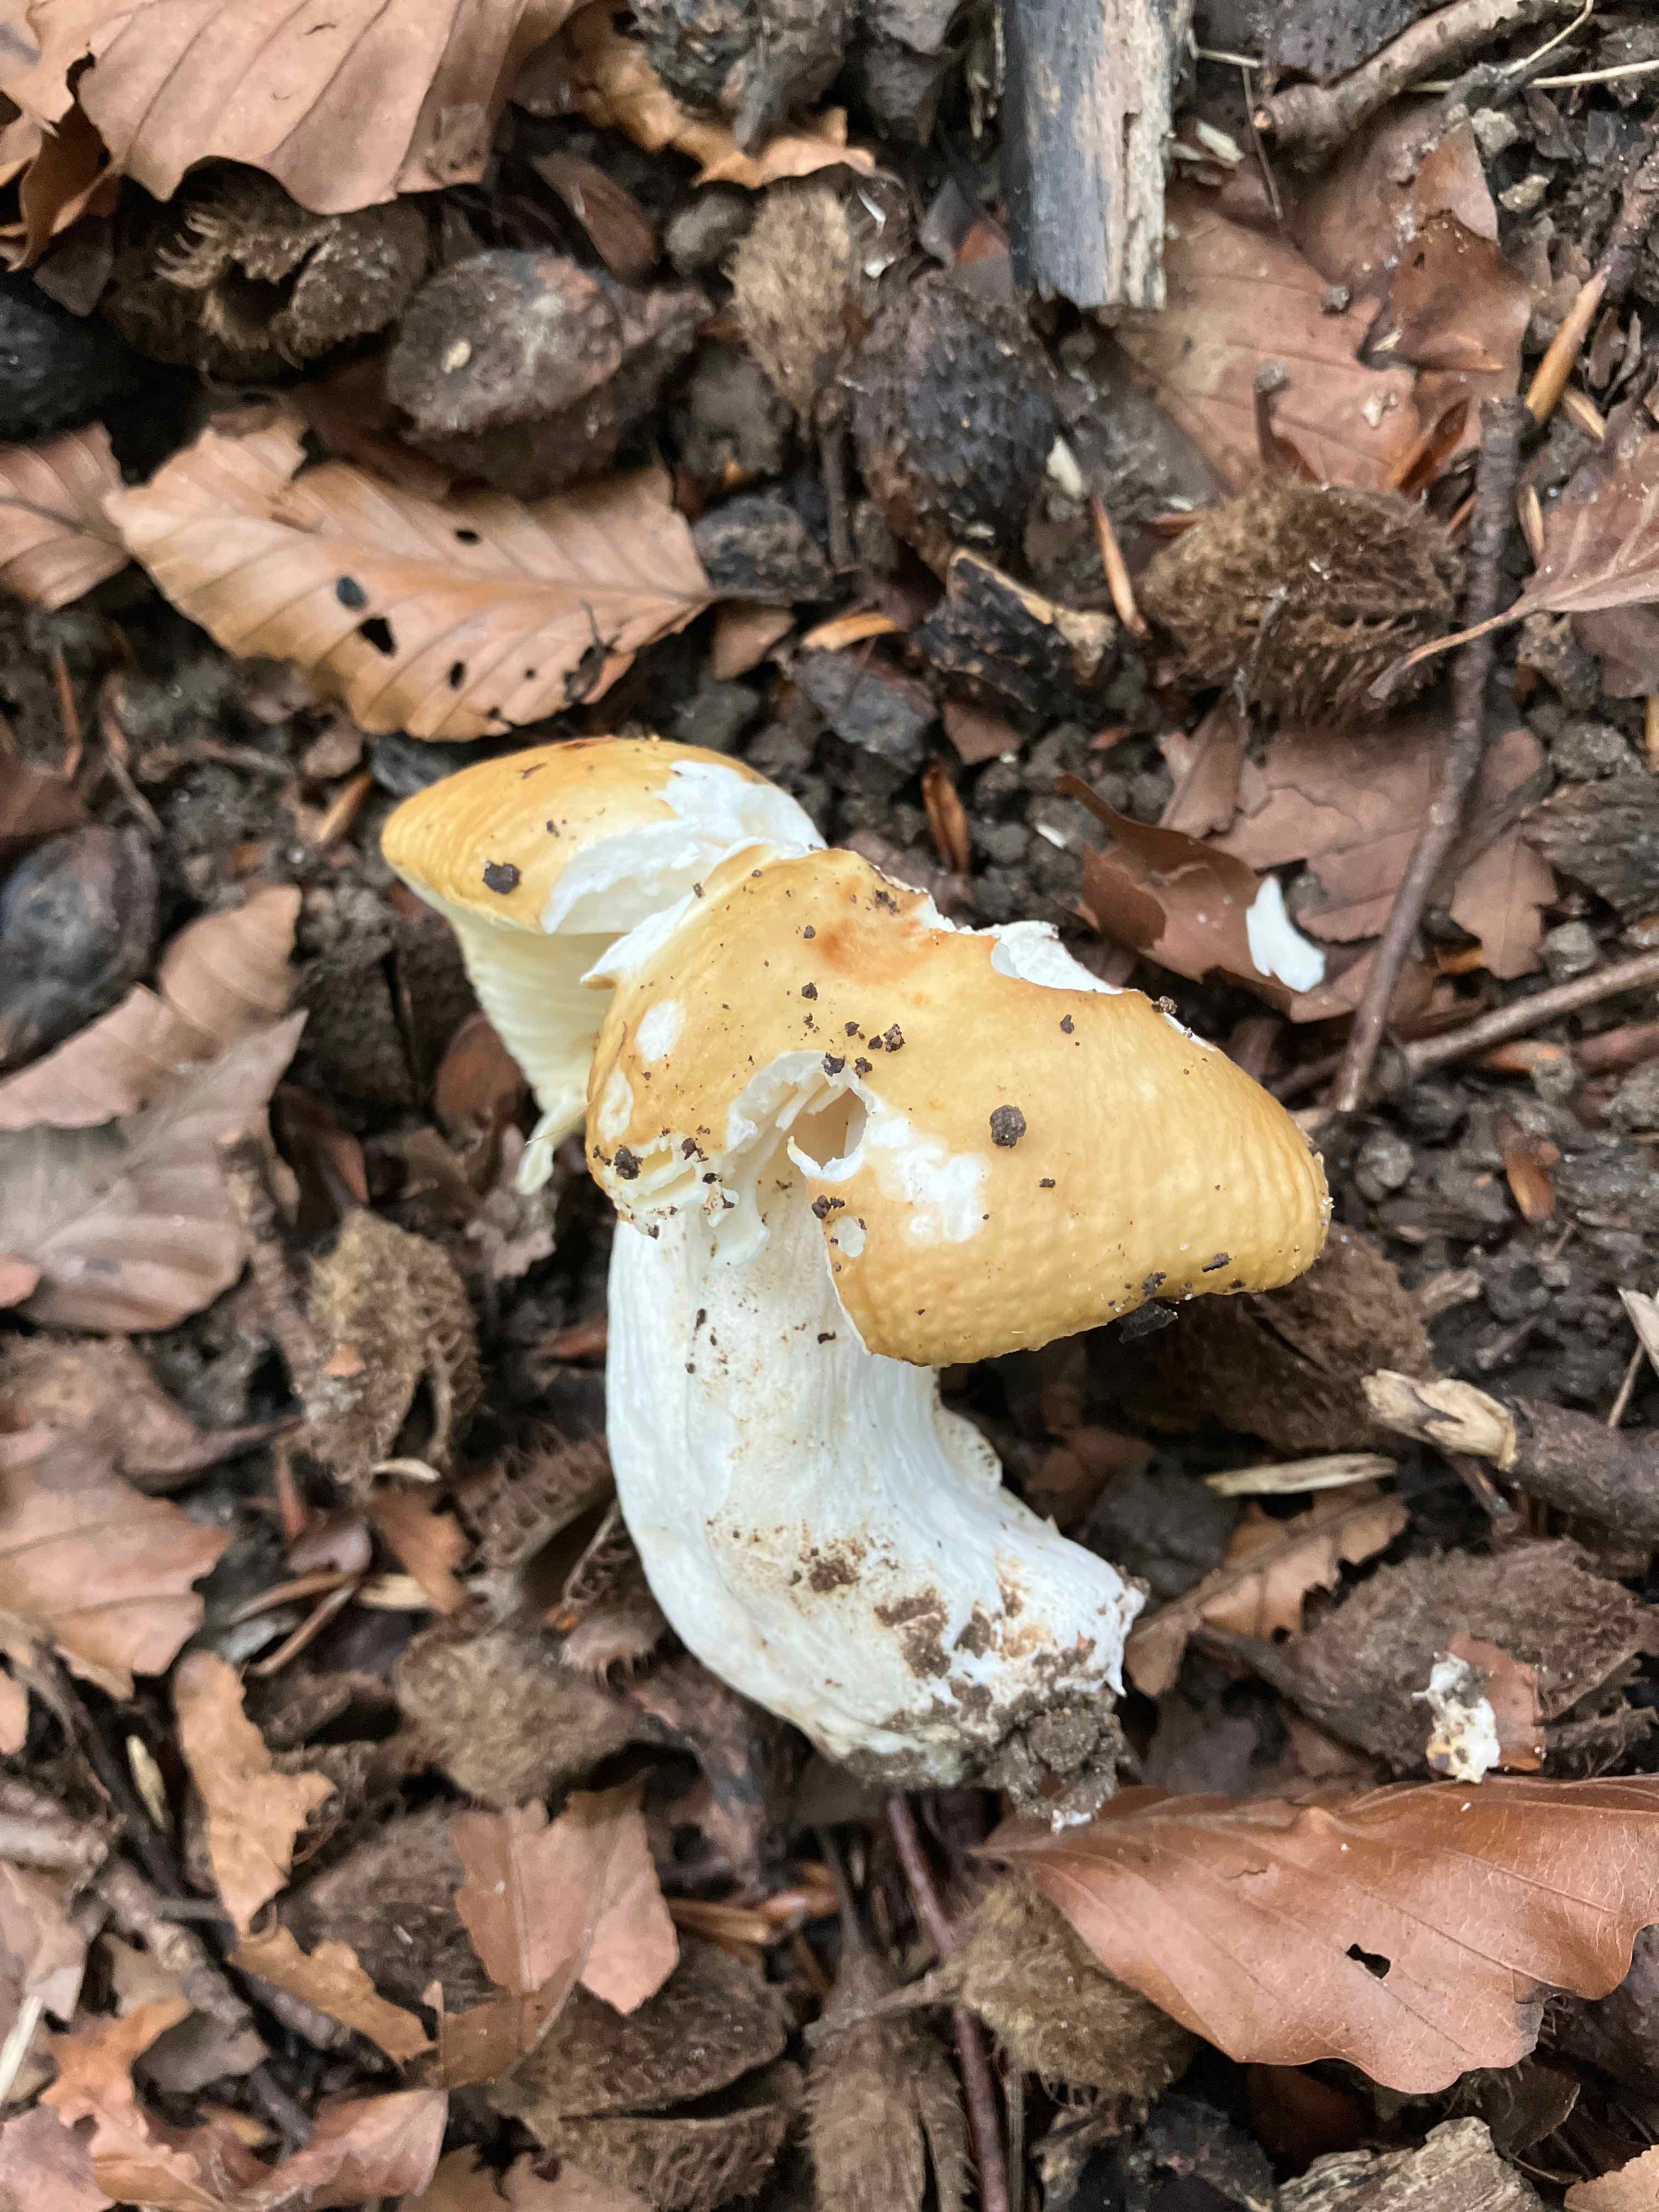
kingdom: Fungi
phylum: Basidiomycota
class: Agaricomycetes
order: Russulales
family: Russulaceae
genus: Russula
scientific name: Russula
